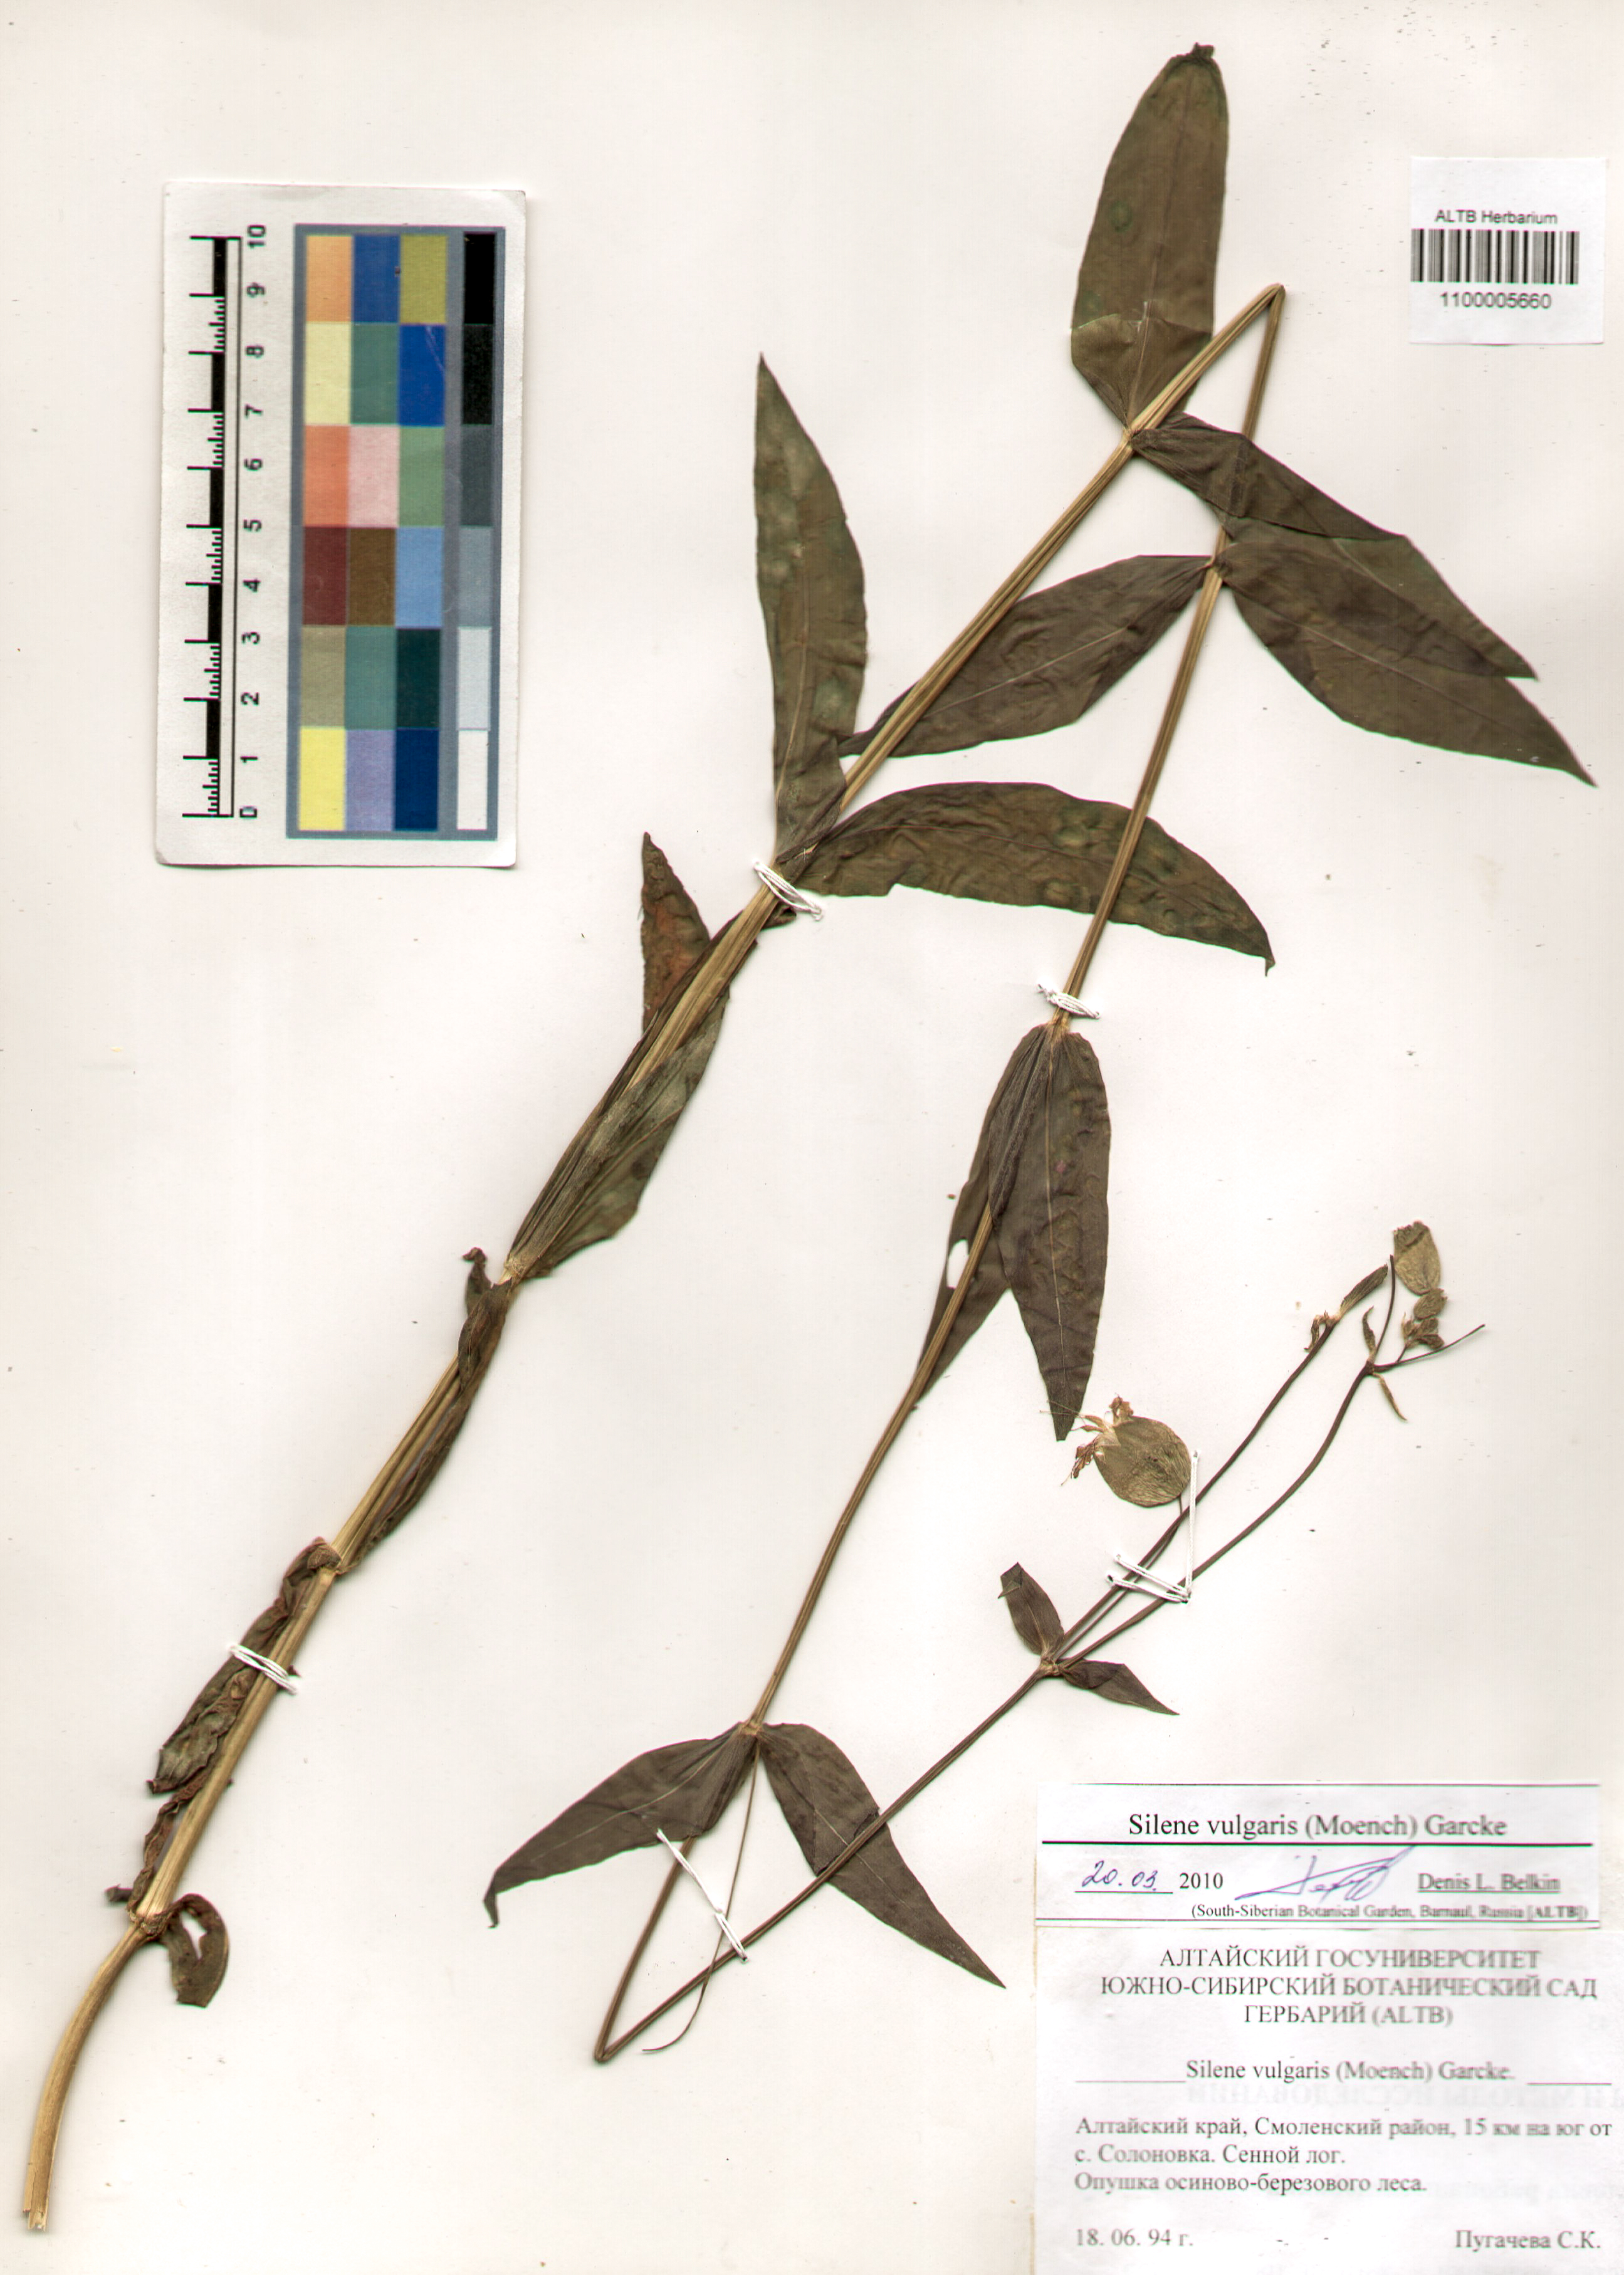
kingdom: Plantae
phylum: Tracheophyta
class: Magnoliopsida
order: Caryophyllales
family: Caryophyllaceae
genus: Silene
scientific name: Silene vulgaris
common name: Bladder campion
